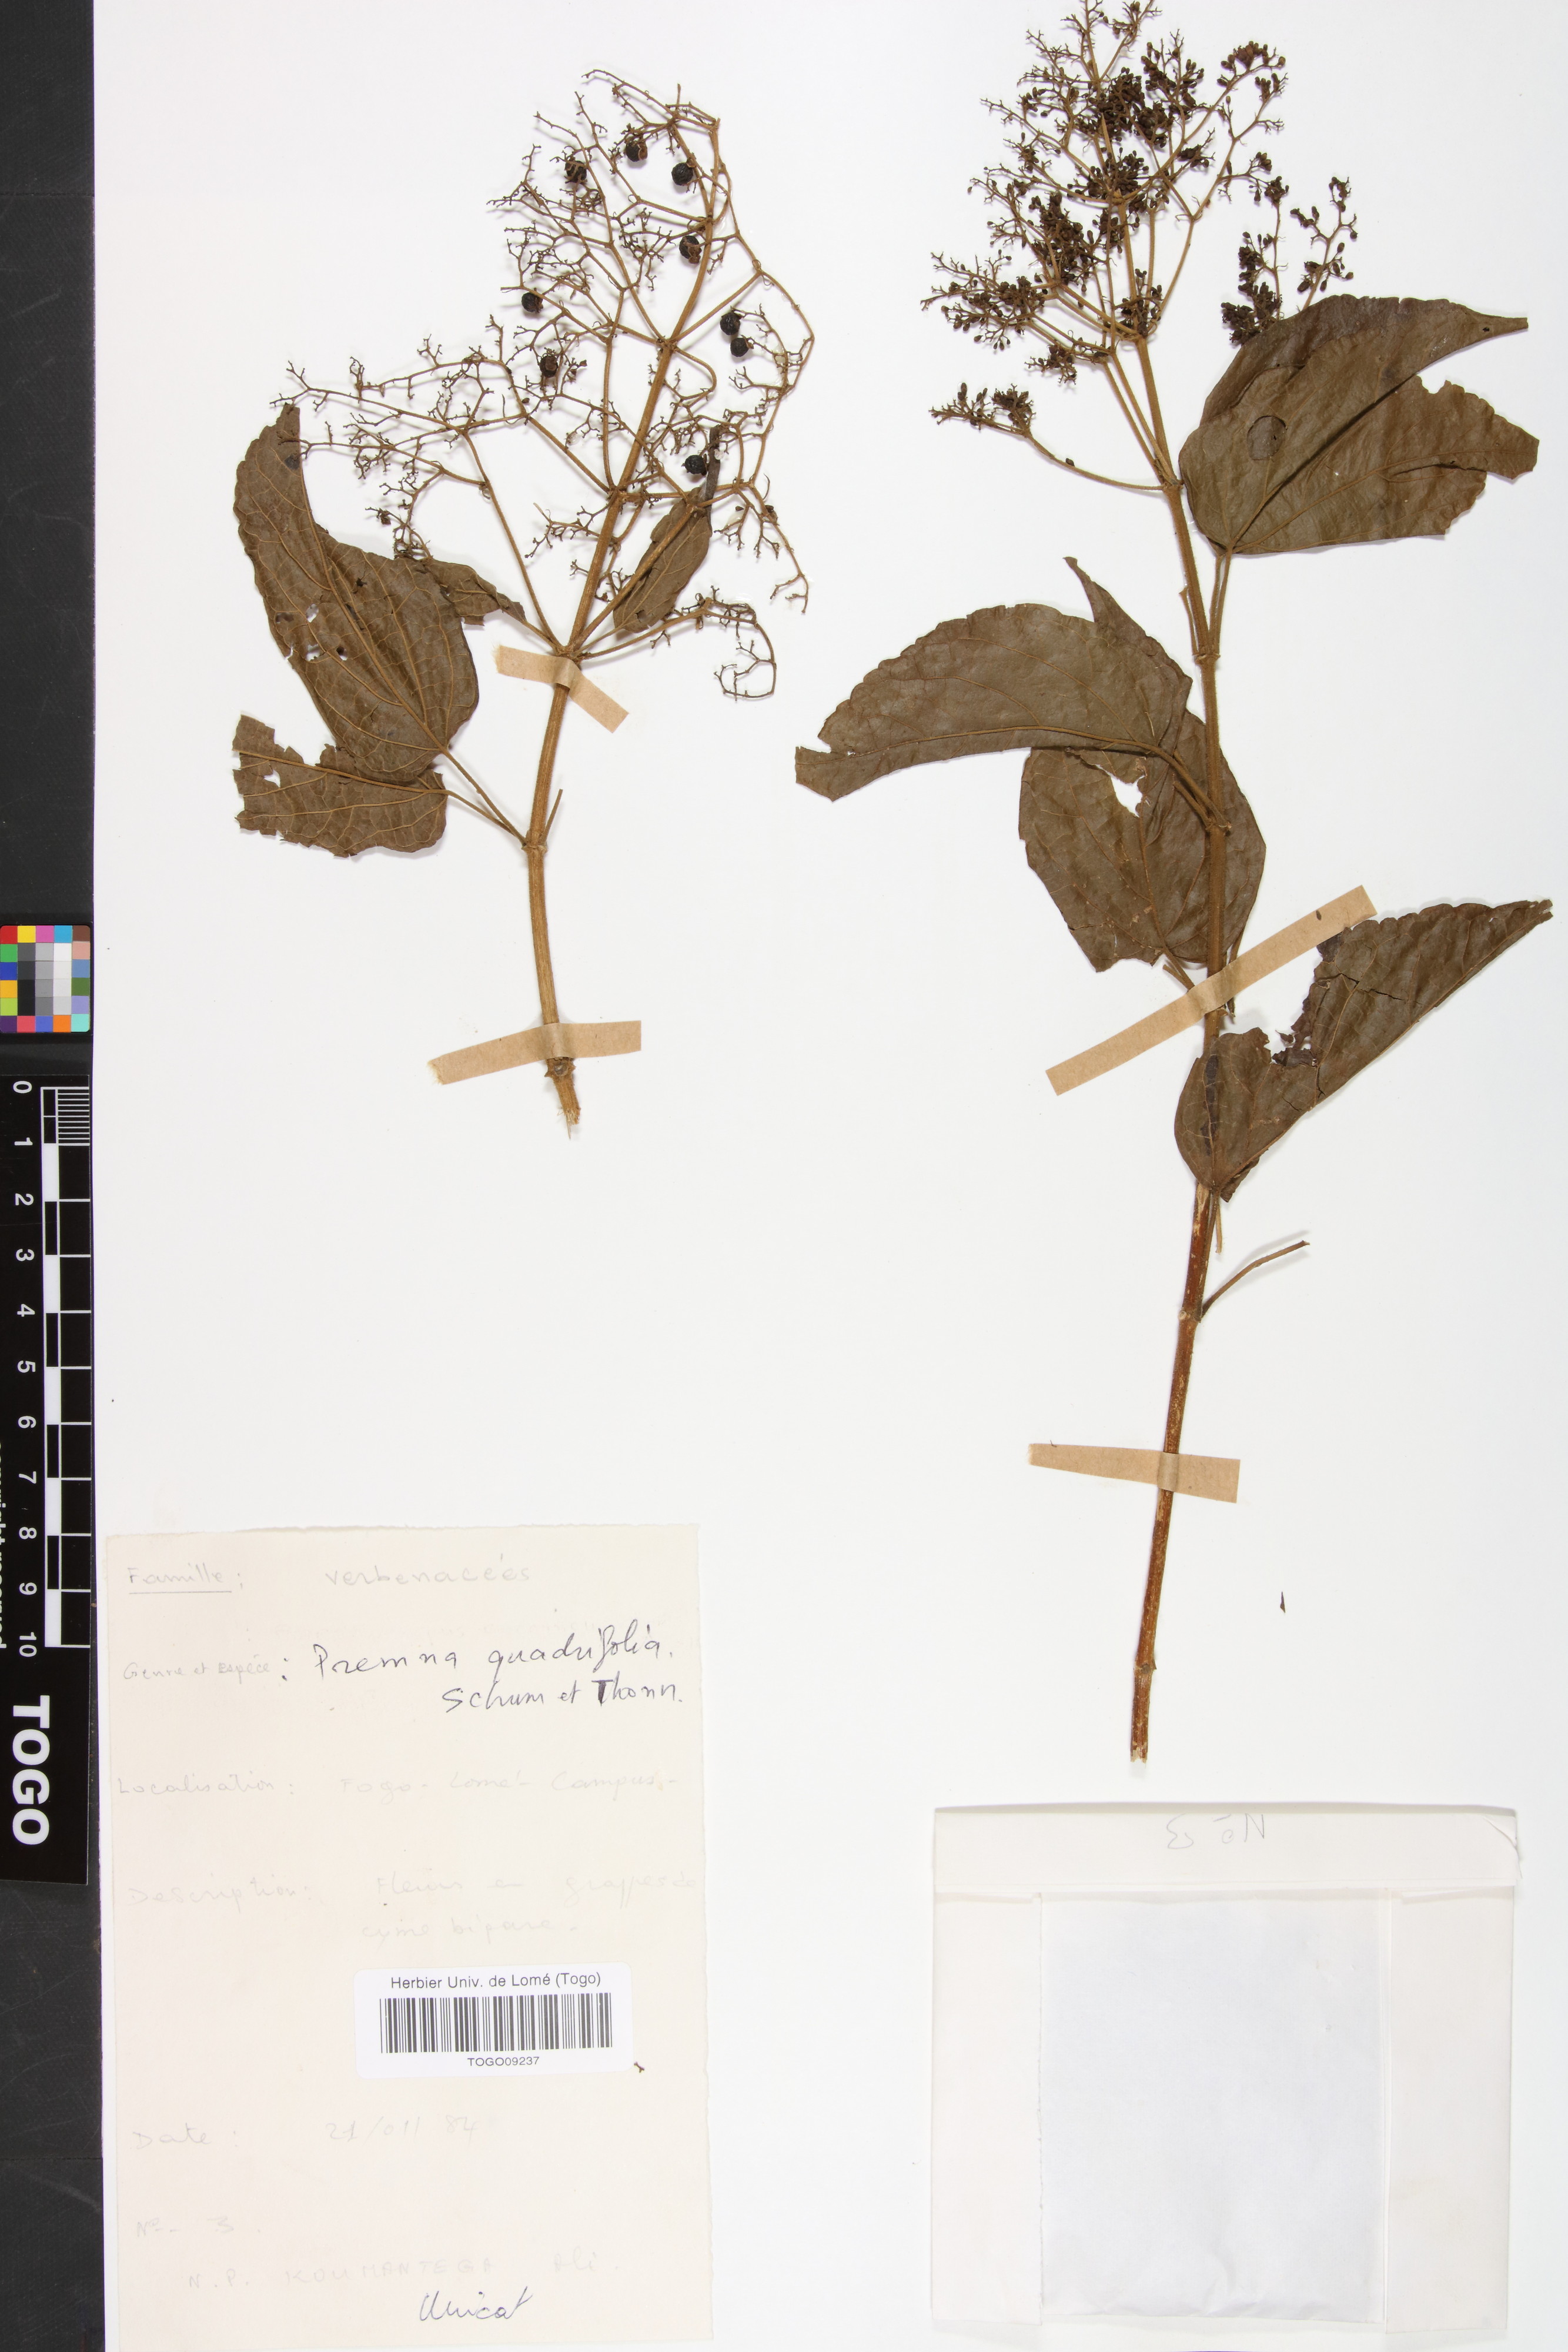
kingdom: Plantae
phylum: Tracheophyta
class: Magnoliopsida
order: Lamiales
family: Lamiaceae
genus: Premna
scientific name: Premna quadrifolia
